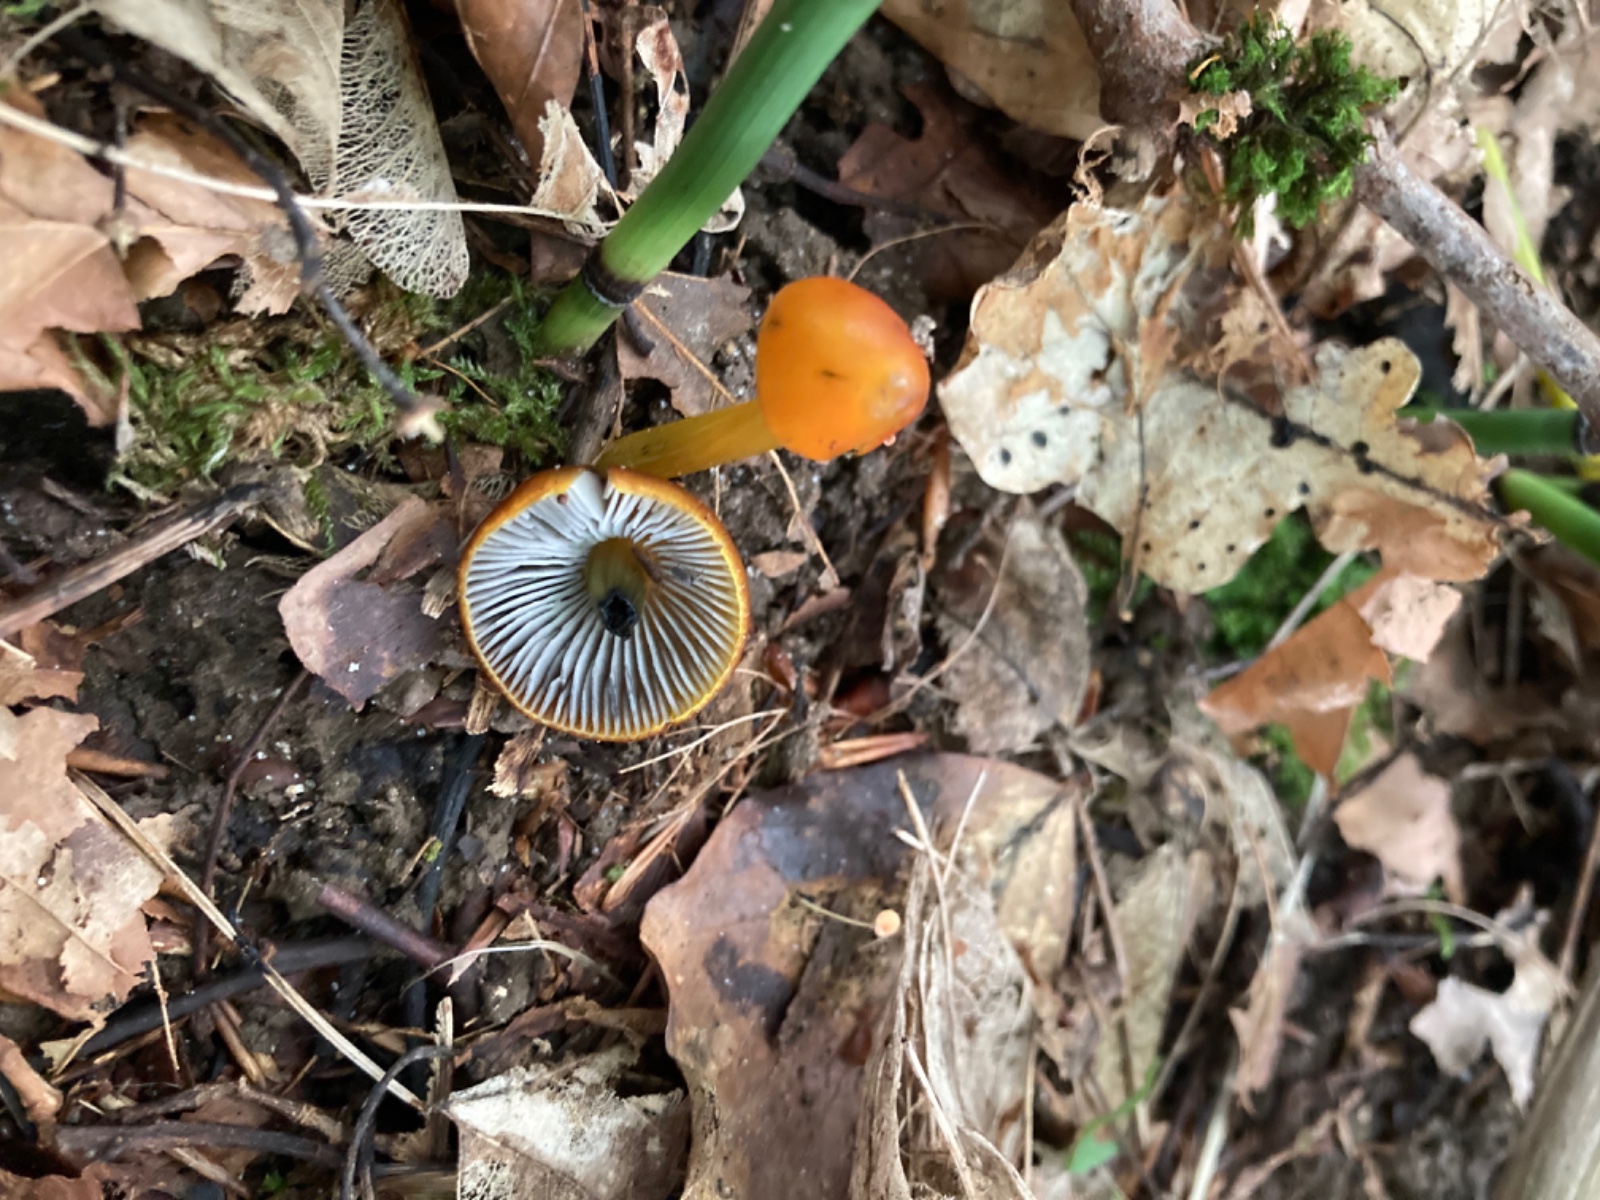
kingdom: Fungi
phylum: Basidiomycota
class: Agaricomycetes
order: Agaricales
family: Hygrophoraceae
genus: Hygrocybe
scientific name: Hygrocybe conica
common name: kegle-vokshat
